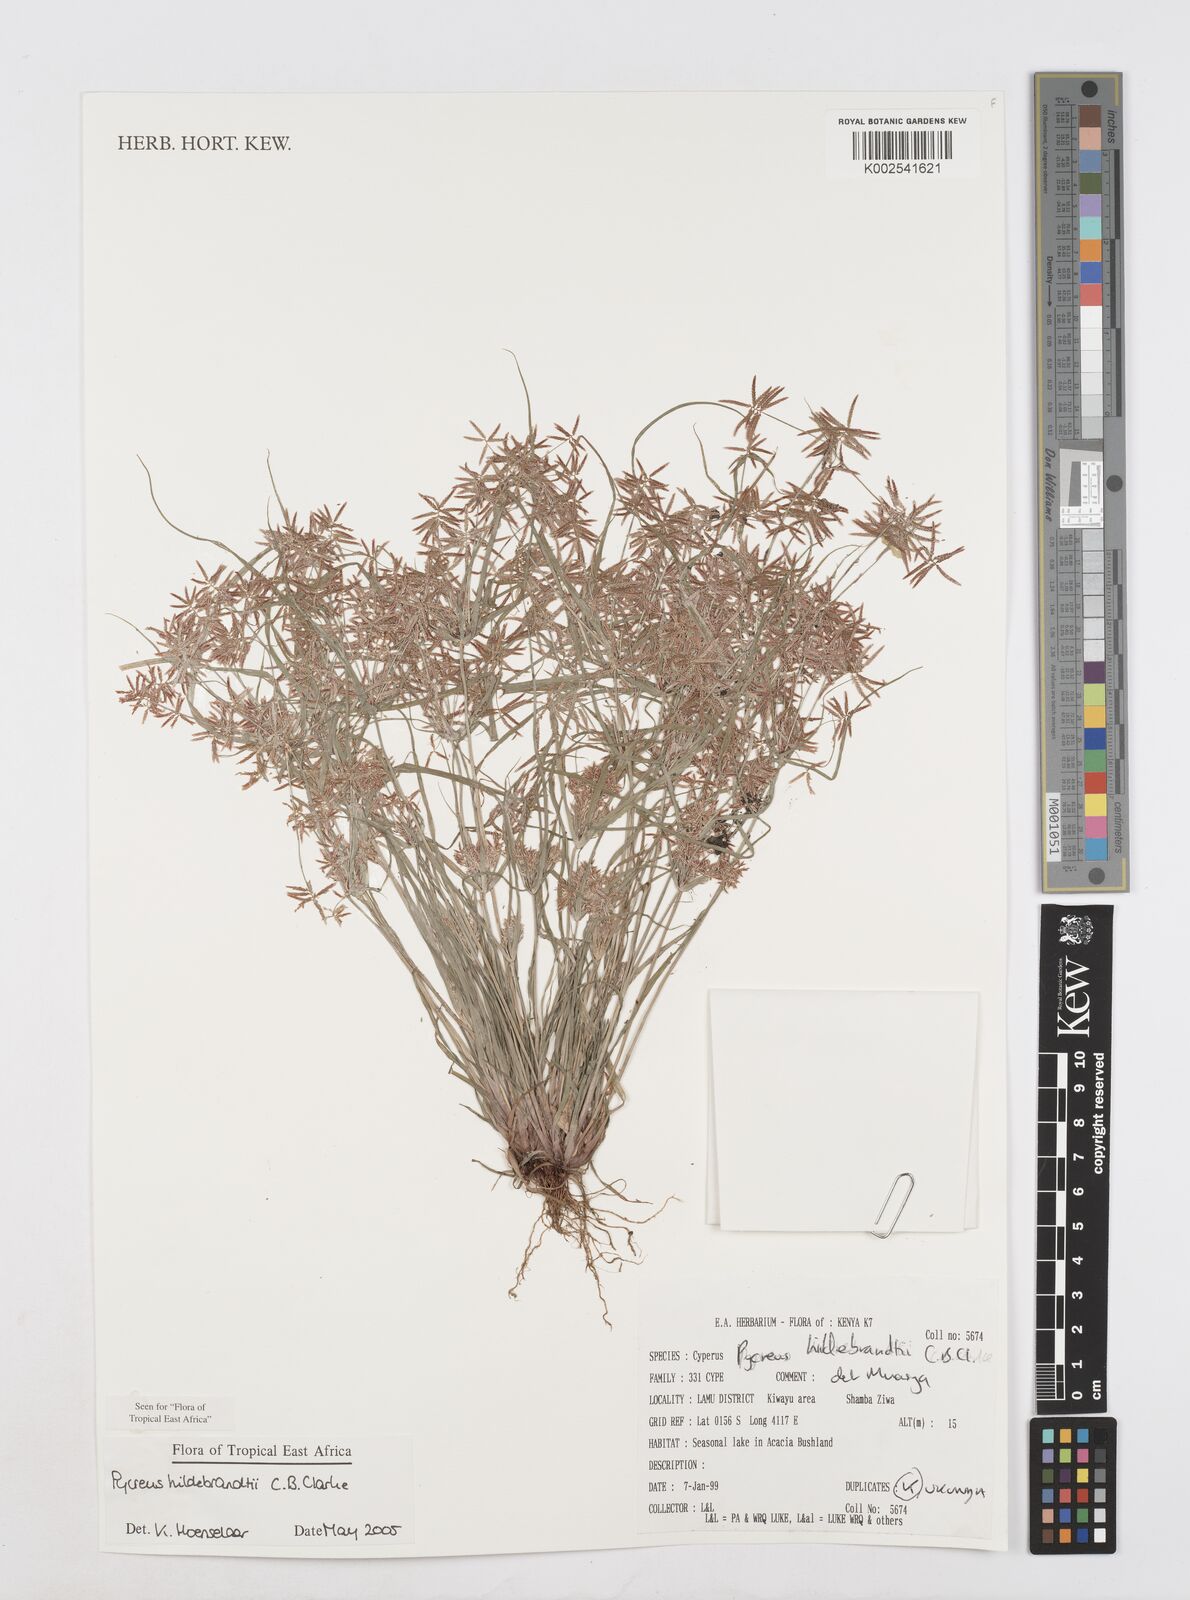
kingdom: Plantae
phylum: Tracheophyta
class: Liliopsida
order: Poales
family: Cyperaceae
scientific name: Cyperaceae
